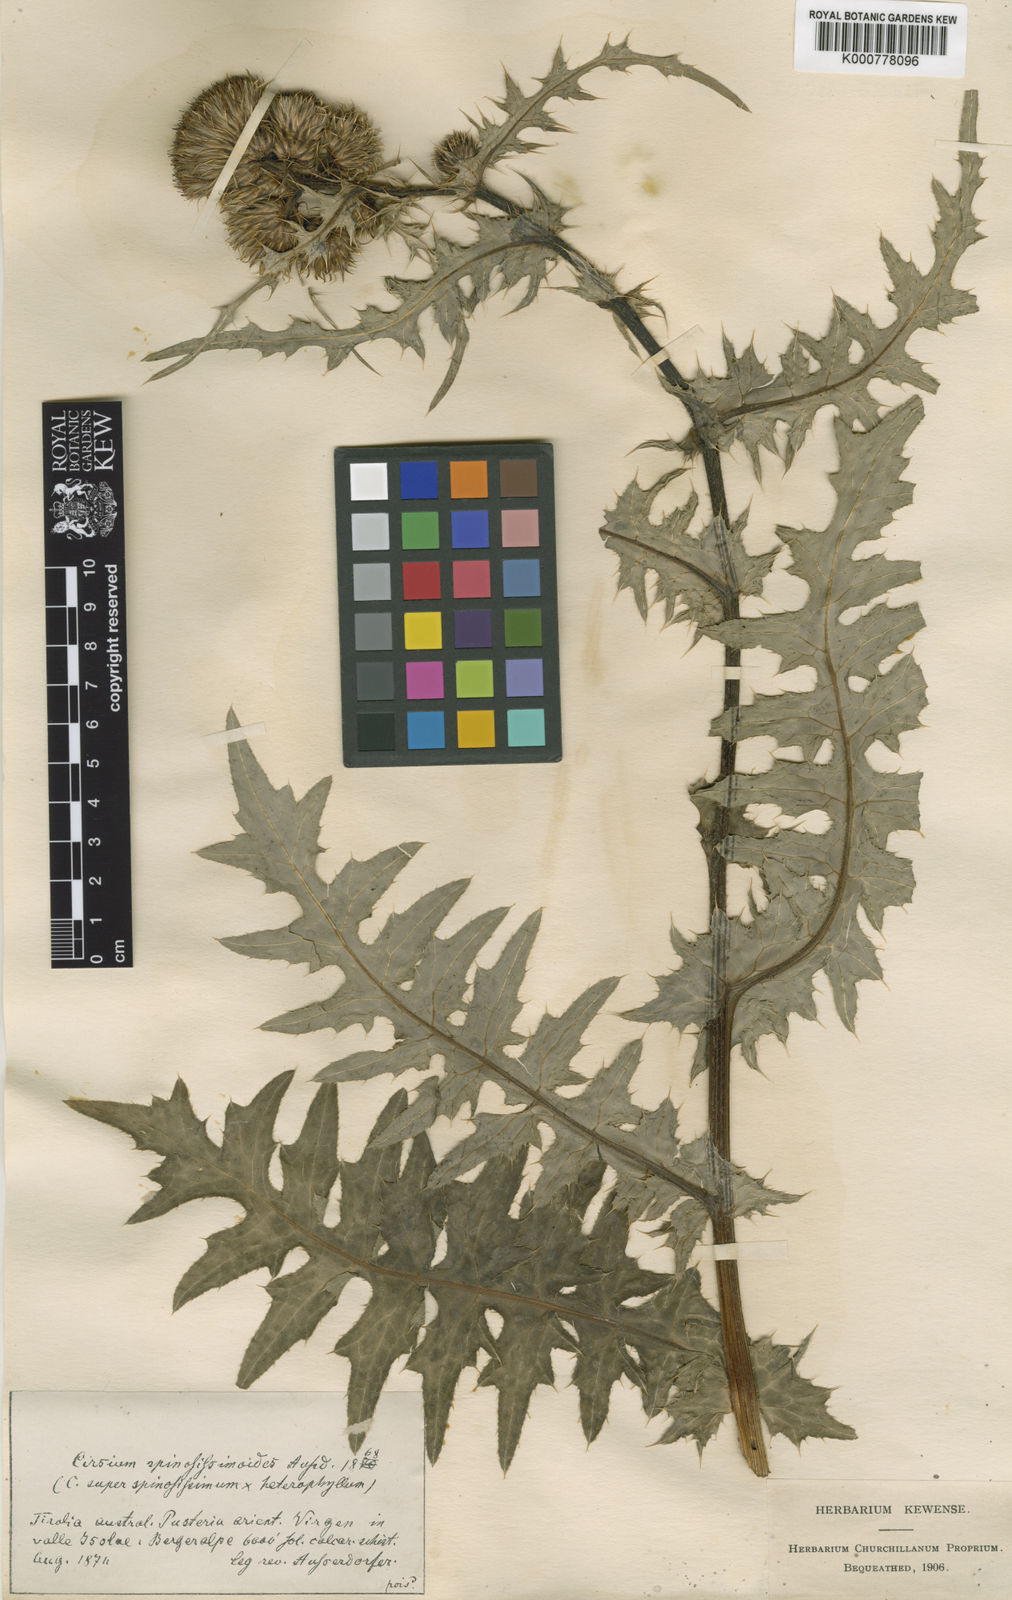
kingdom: Plantae
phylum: Tracheophyta
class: Magnoliopsida
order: Asterales
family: Asteraceae
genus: Cirsium
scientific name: Cirsium spinosissimum
